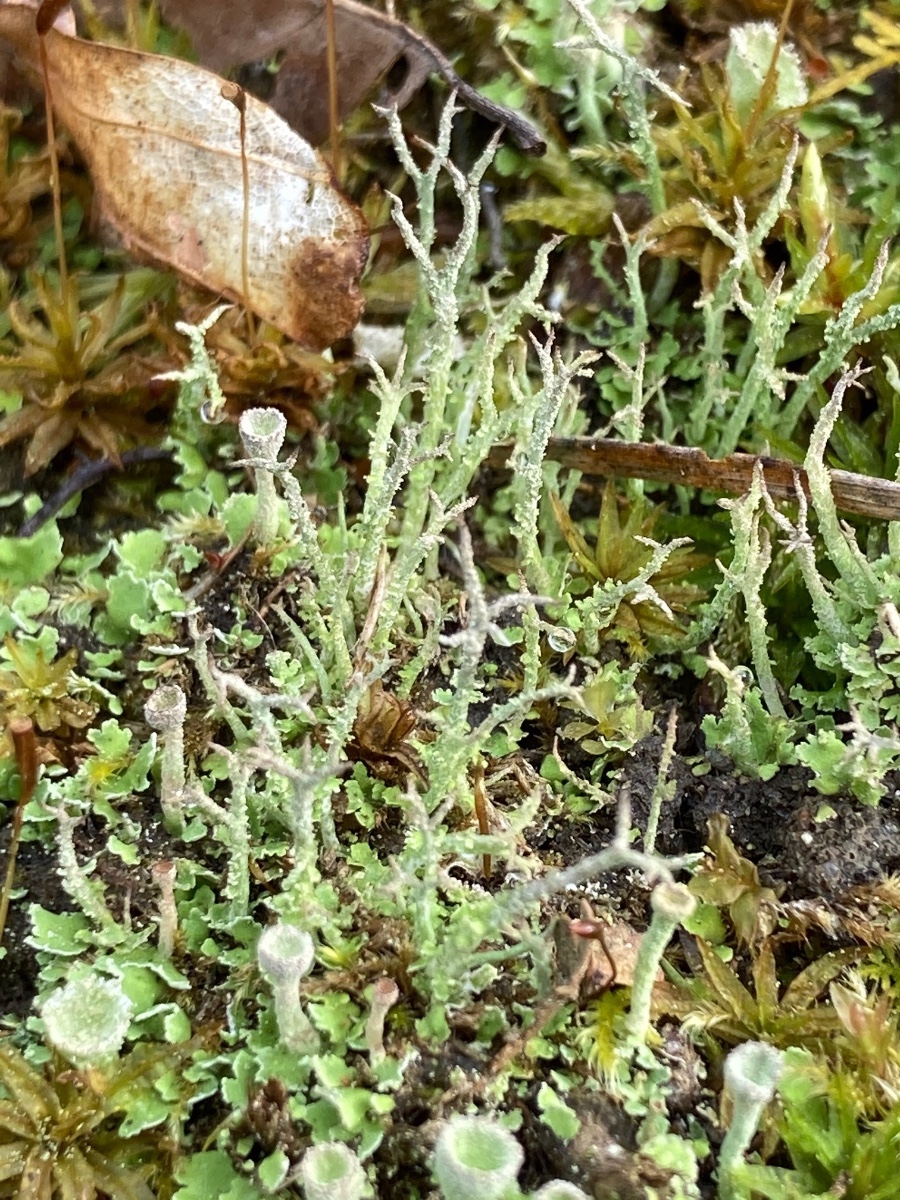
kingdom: Fungi
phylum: Ascomycota
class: Lecanoromycetes
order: Lecanorales
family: Cladoniaceae
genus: Cladonia
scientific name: Cladonia scabriuscula
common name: ru bægerlav
